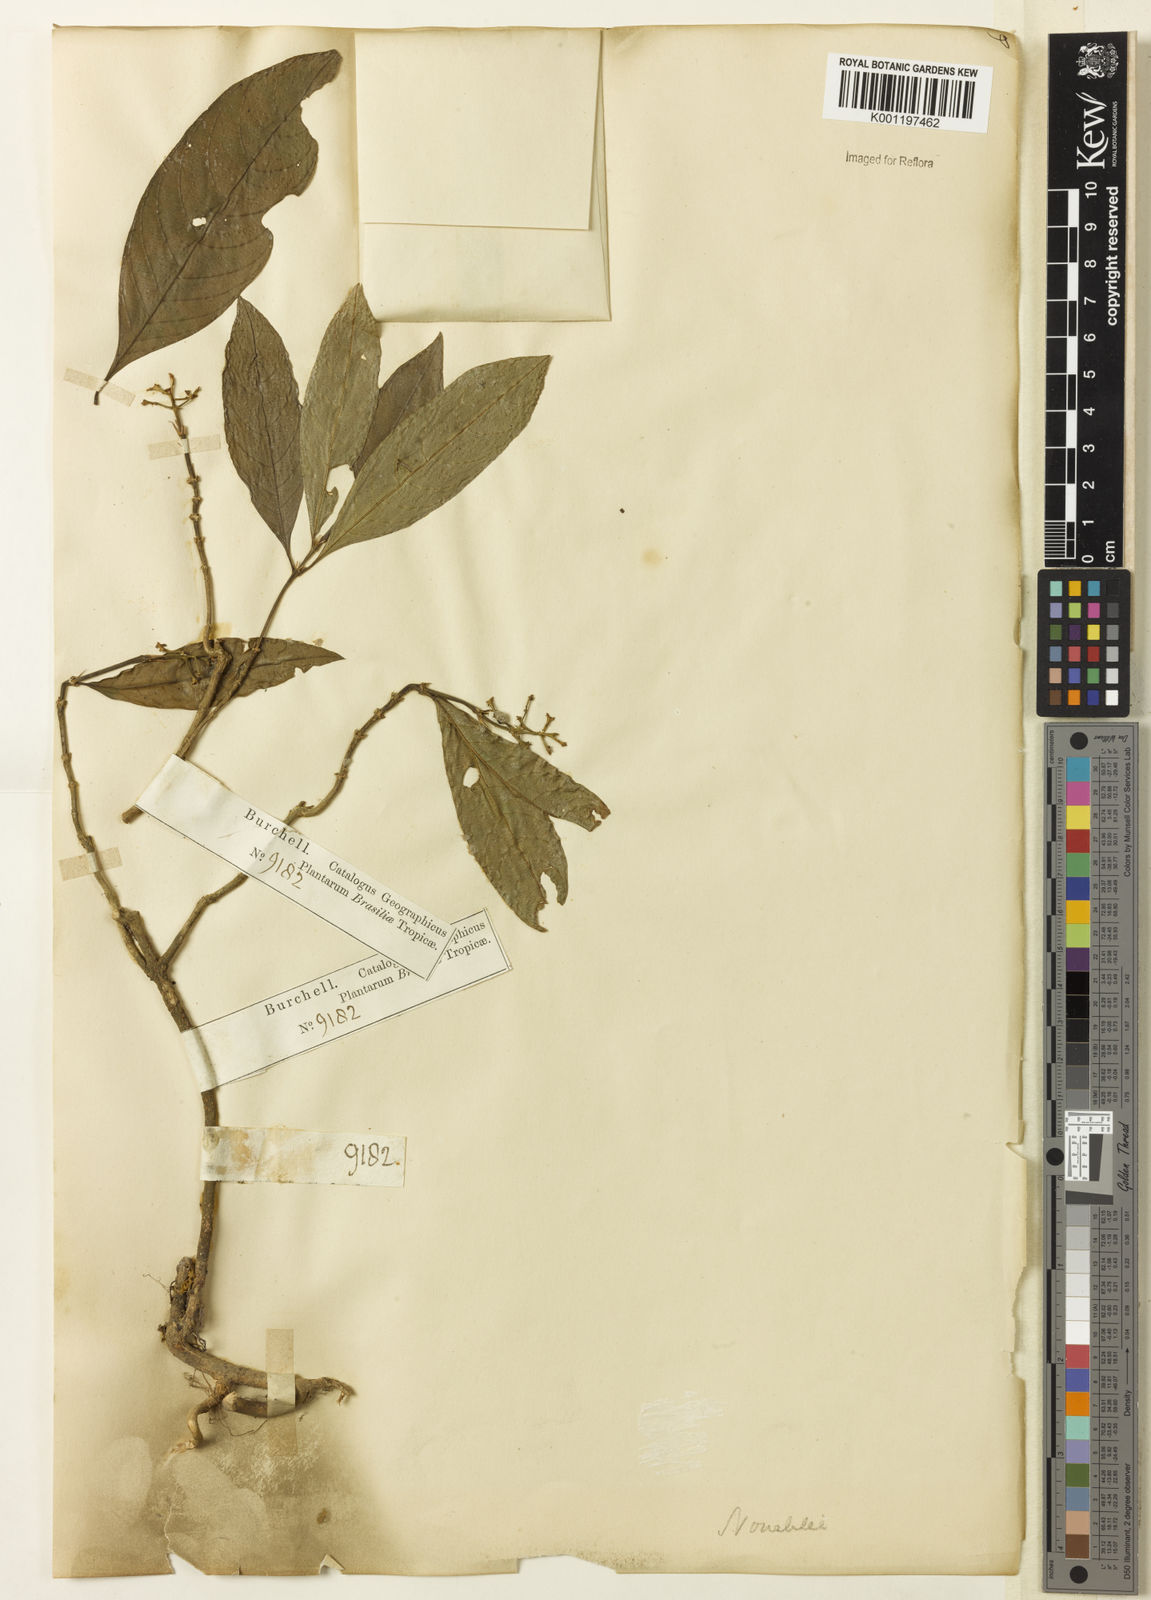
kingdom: Plantae
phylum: Tracheophyta
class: Magnoliopsida
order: Gentianales
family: Rubiaceae
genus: Palicourea
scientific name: Palicourea racemosa
